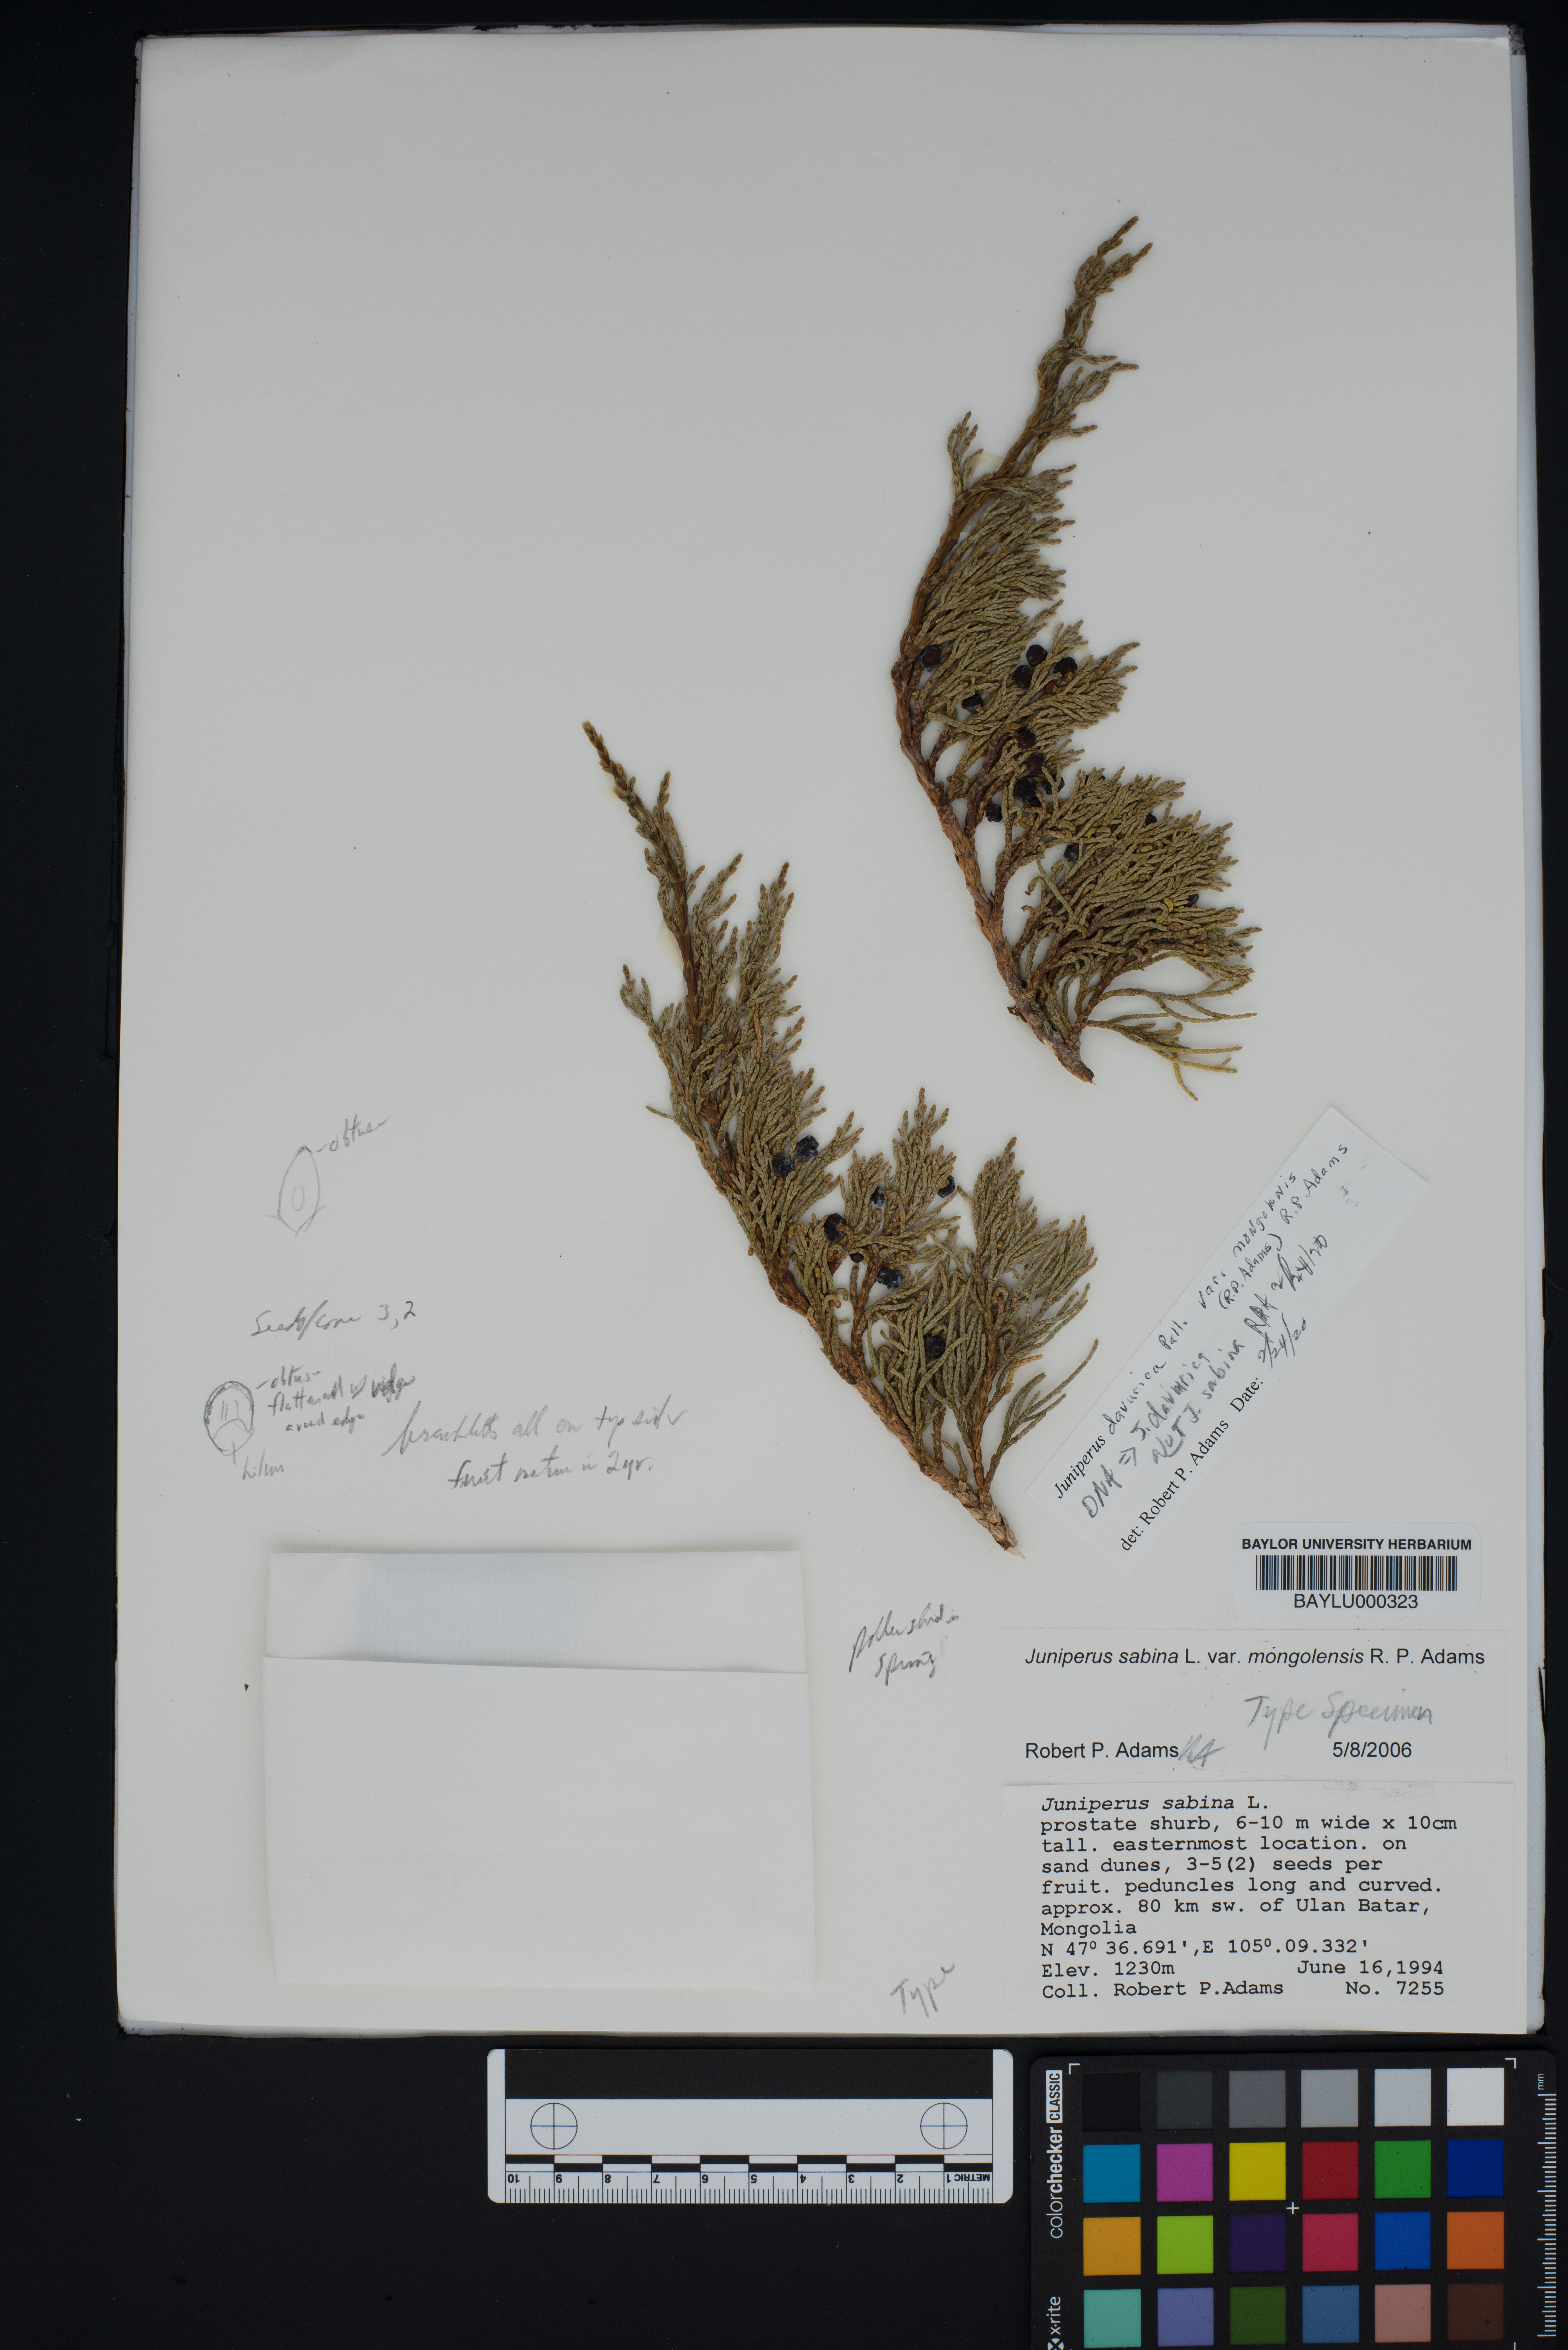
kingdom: Plantae
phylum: Tracheophyta
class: Pinopsida
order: Pinales
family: Cupressaceae
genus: Juniperus
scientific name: Juniperus sabina
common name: Savin
